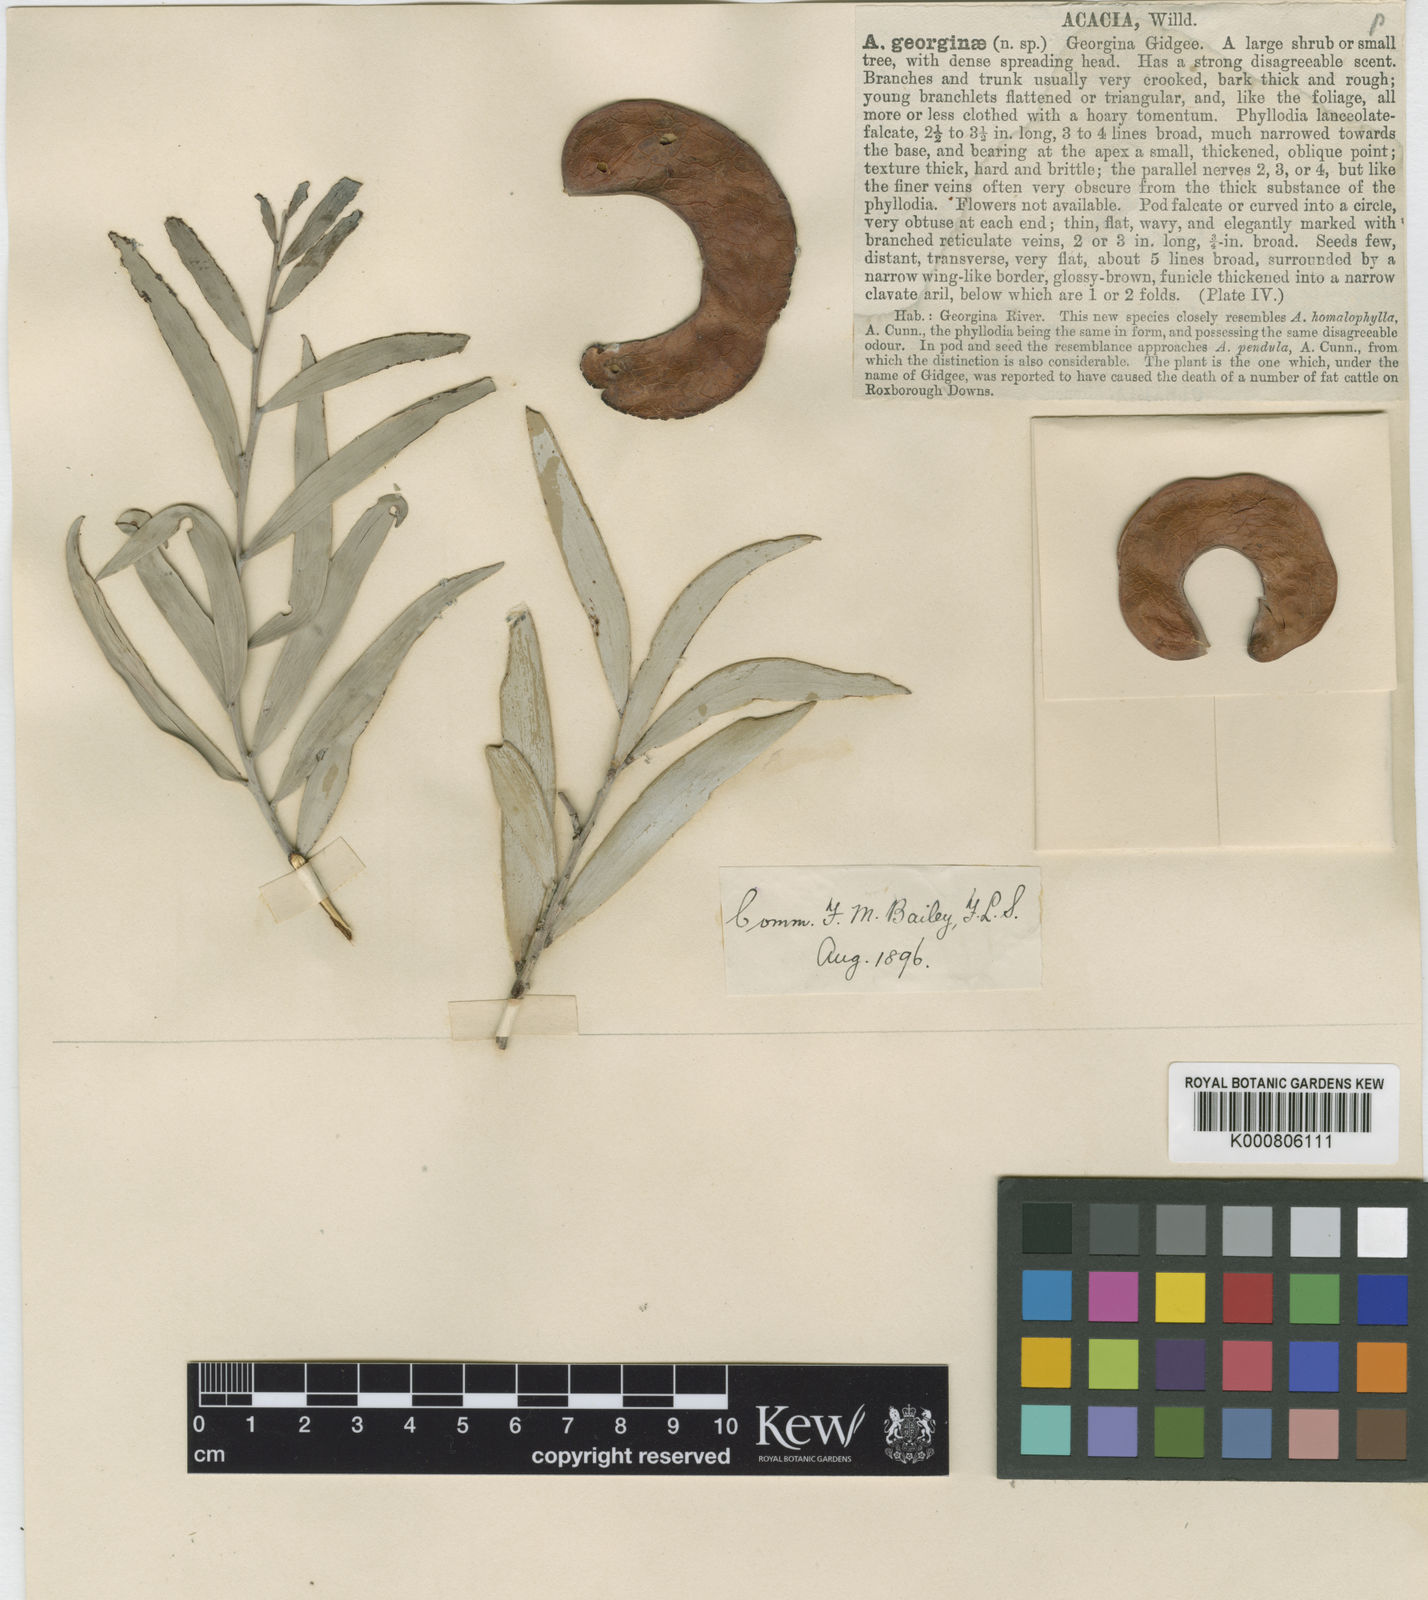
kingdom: Plantae
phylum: Tracheophyta
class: Magnoliopsida
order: Fabales
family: Fabaceae
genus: Acacia
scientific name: Acacia georginae
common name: Georgina gidgee
